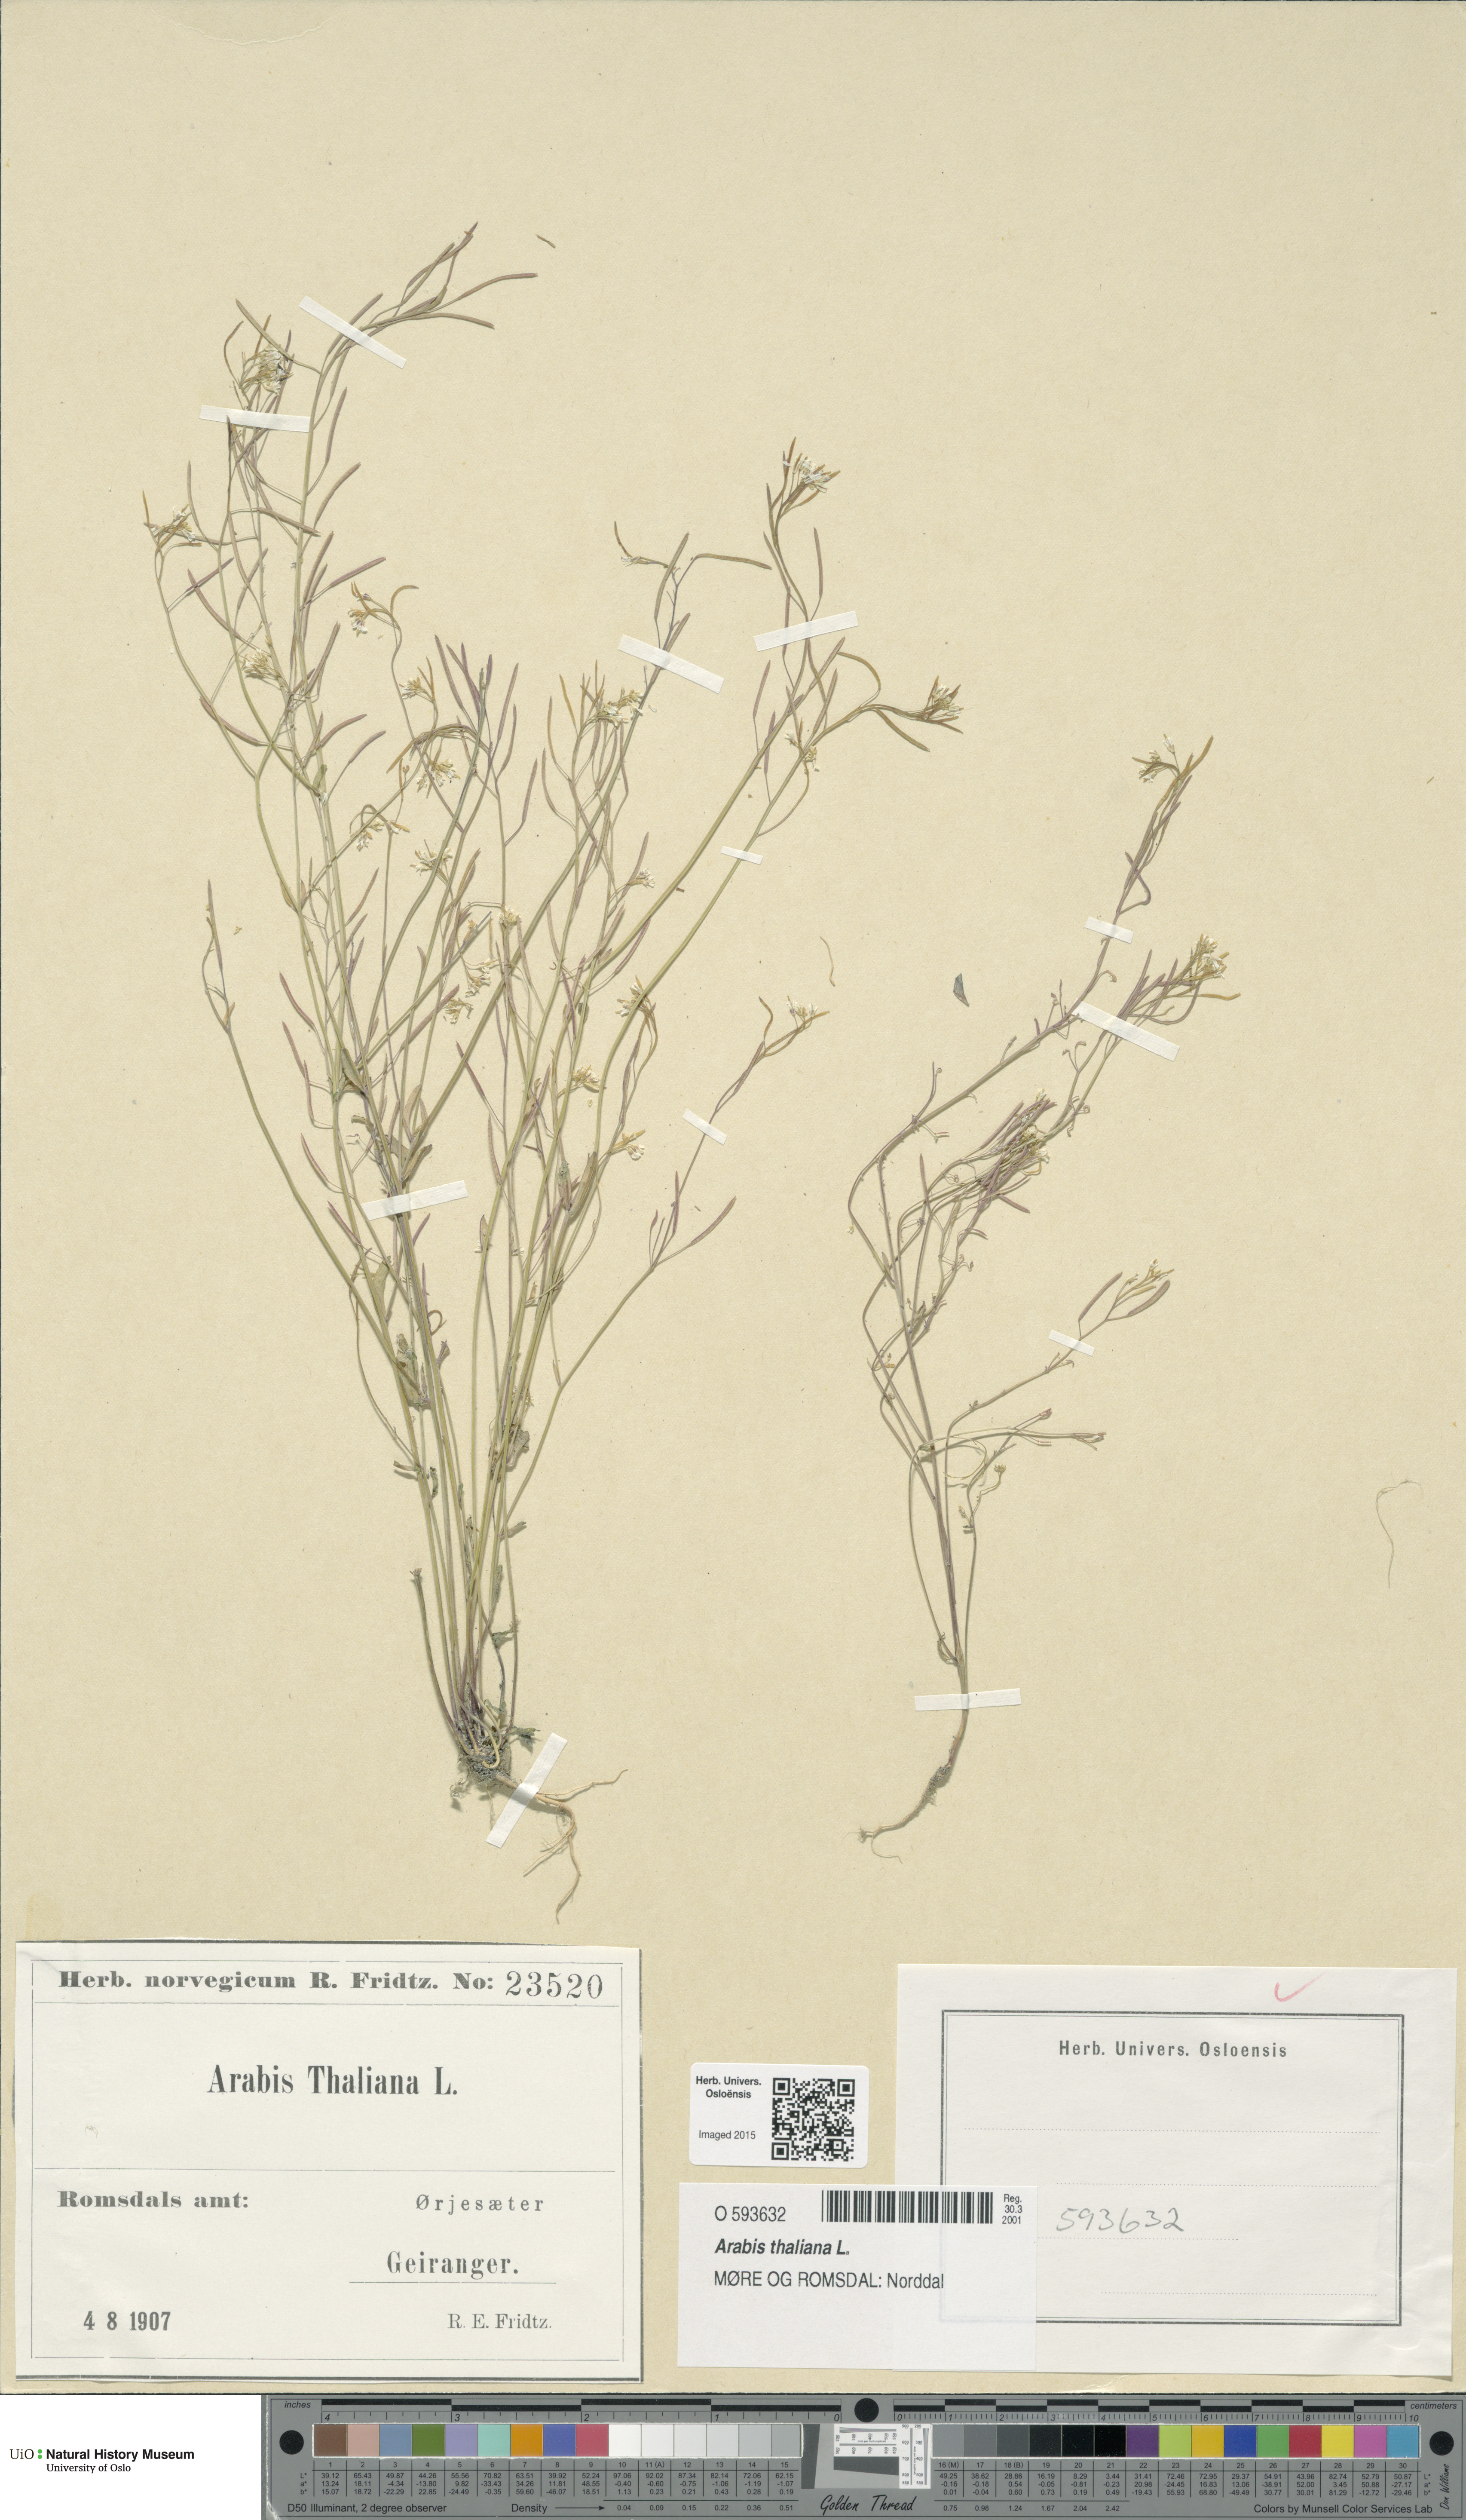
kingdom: Plantae
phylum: Tracheophyta
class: Magnoliopsida
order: Brassicales
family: Brassicaceae
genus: Arabidopsis
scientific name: Arabidopsis thaliana
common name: Thale cress
